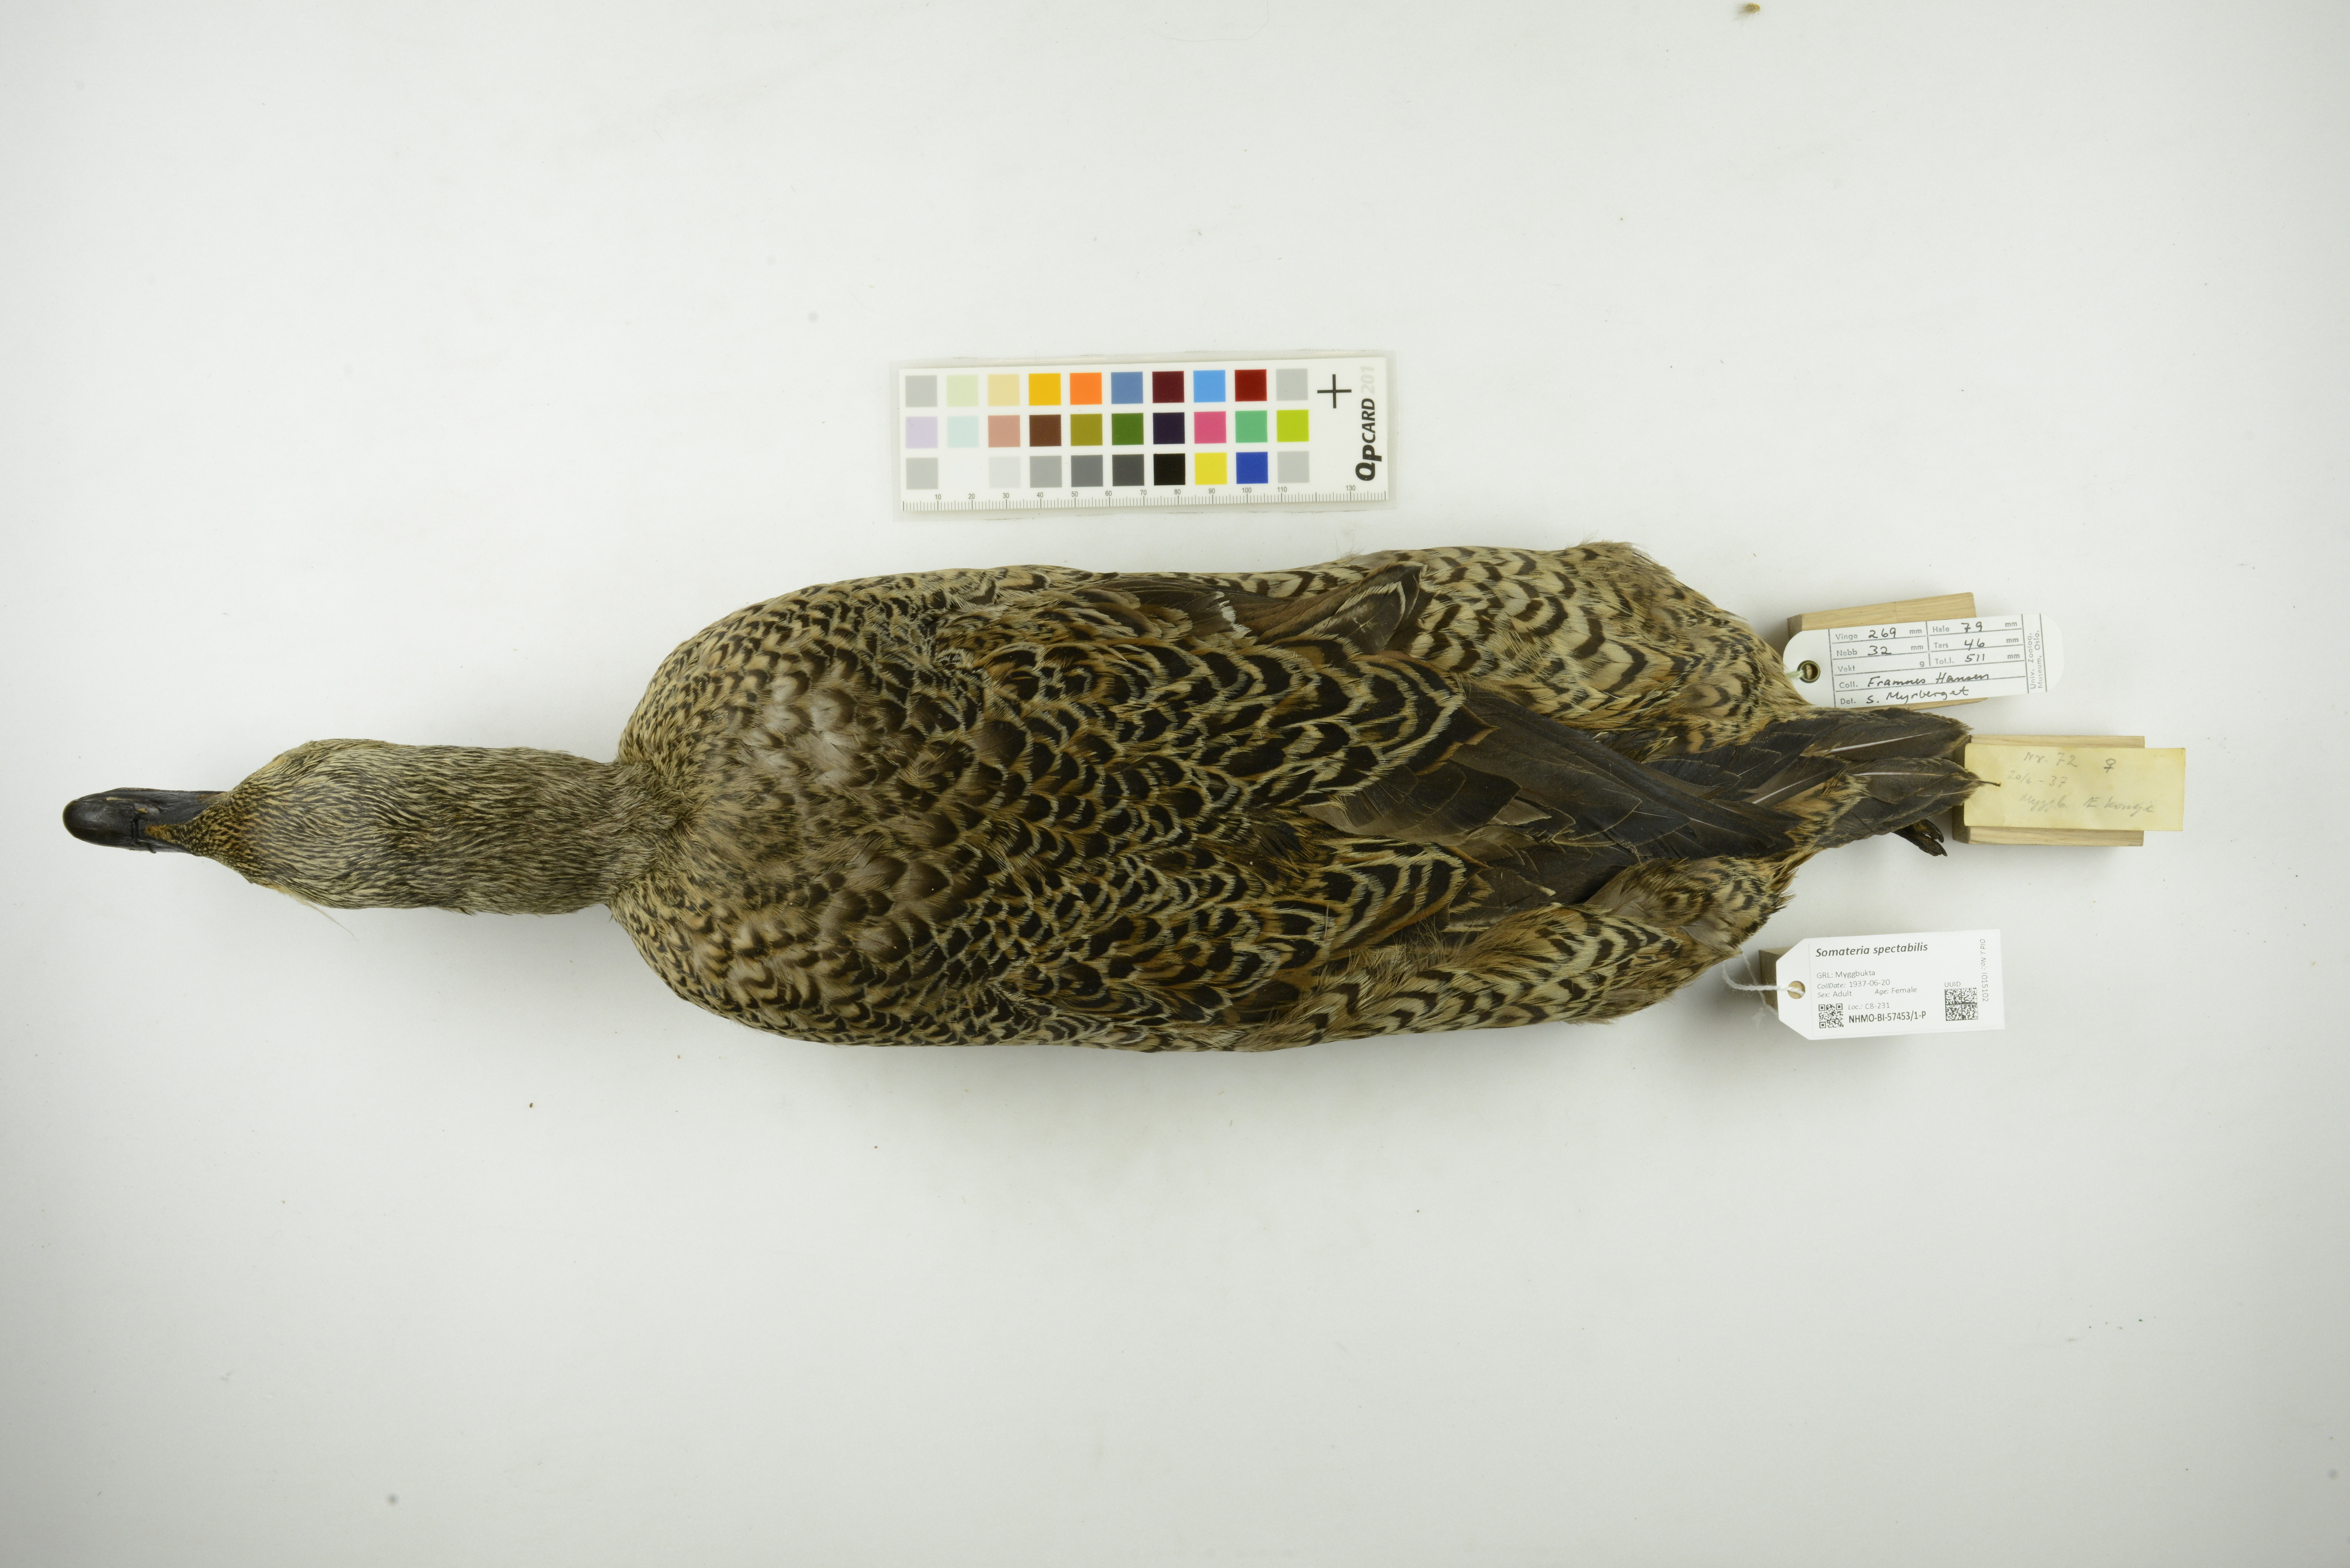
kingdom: Animalia
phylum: Chordata
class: Aves
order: Anseriformes
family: Anatidae
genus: Somateria
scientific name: Somateria spectabilis
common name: King eider
